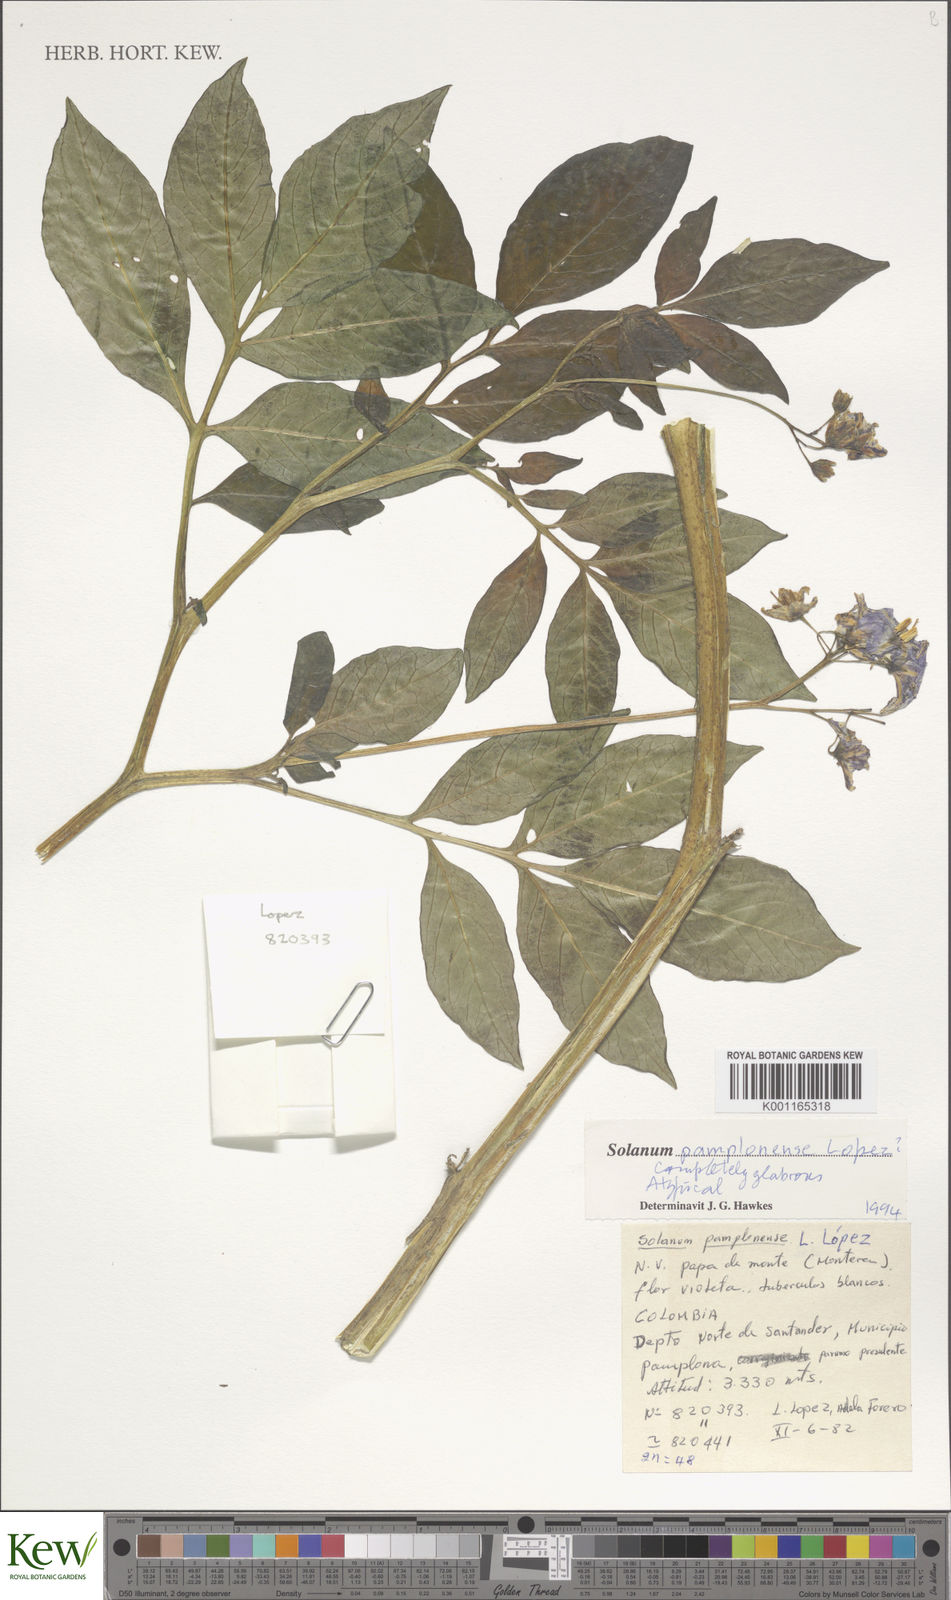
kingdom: Plantae
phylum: Tracheophyta
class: Magnoliopsida
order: Solanales
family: Solanaceae
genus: Solanum
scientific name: Solanum colombianum
